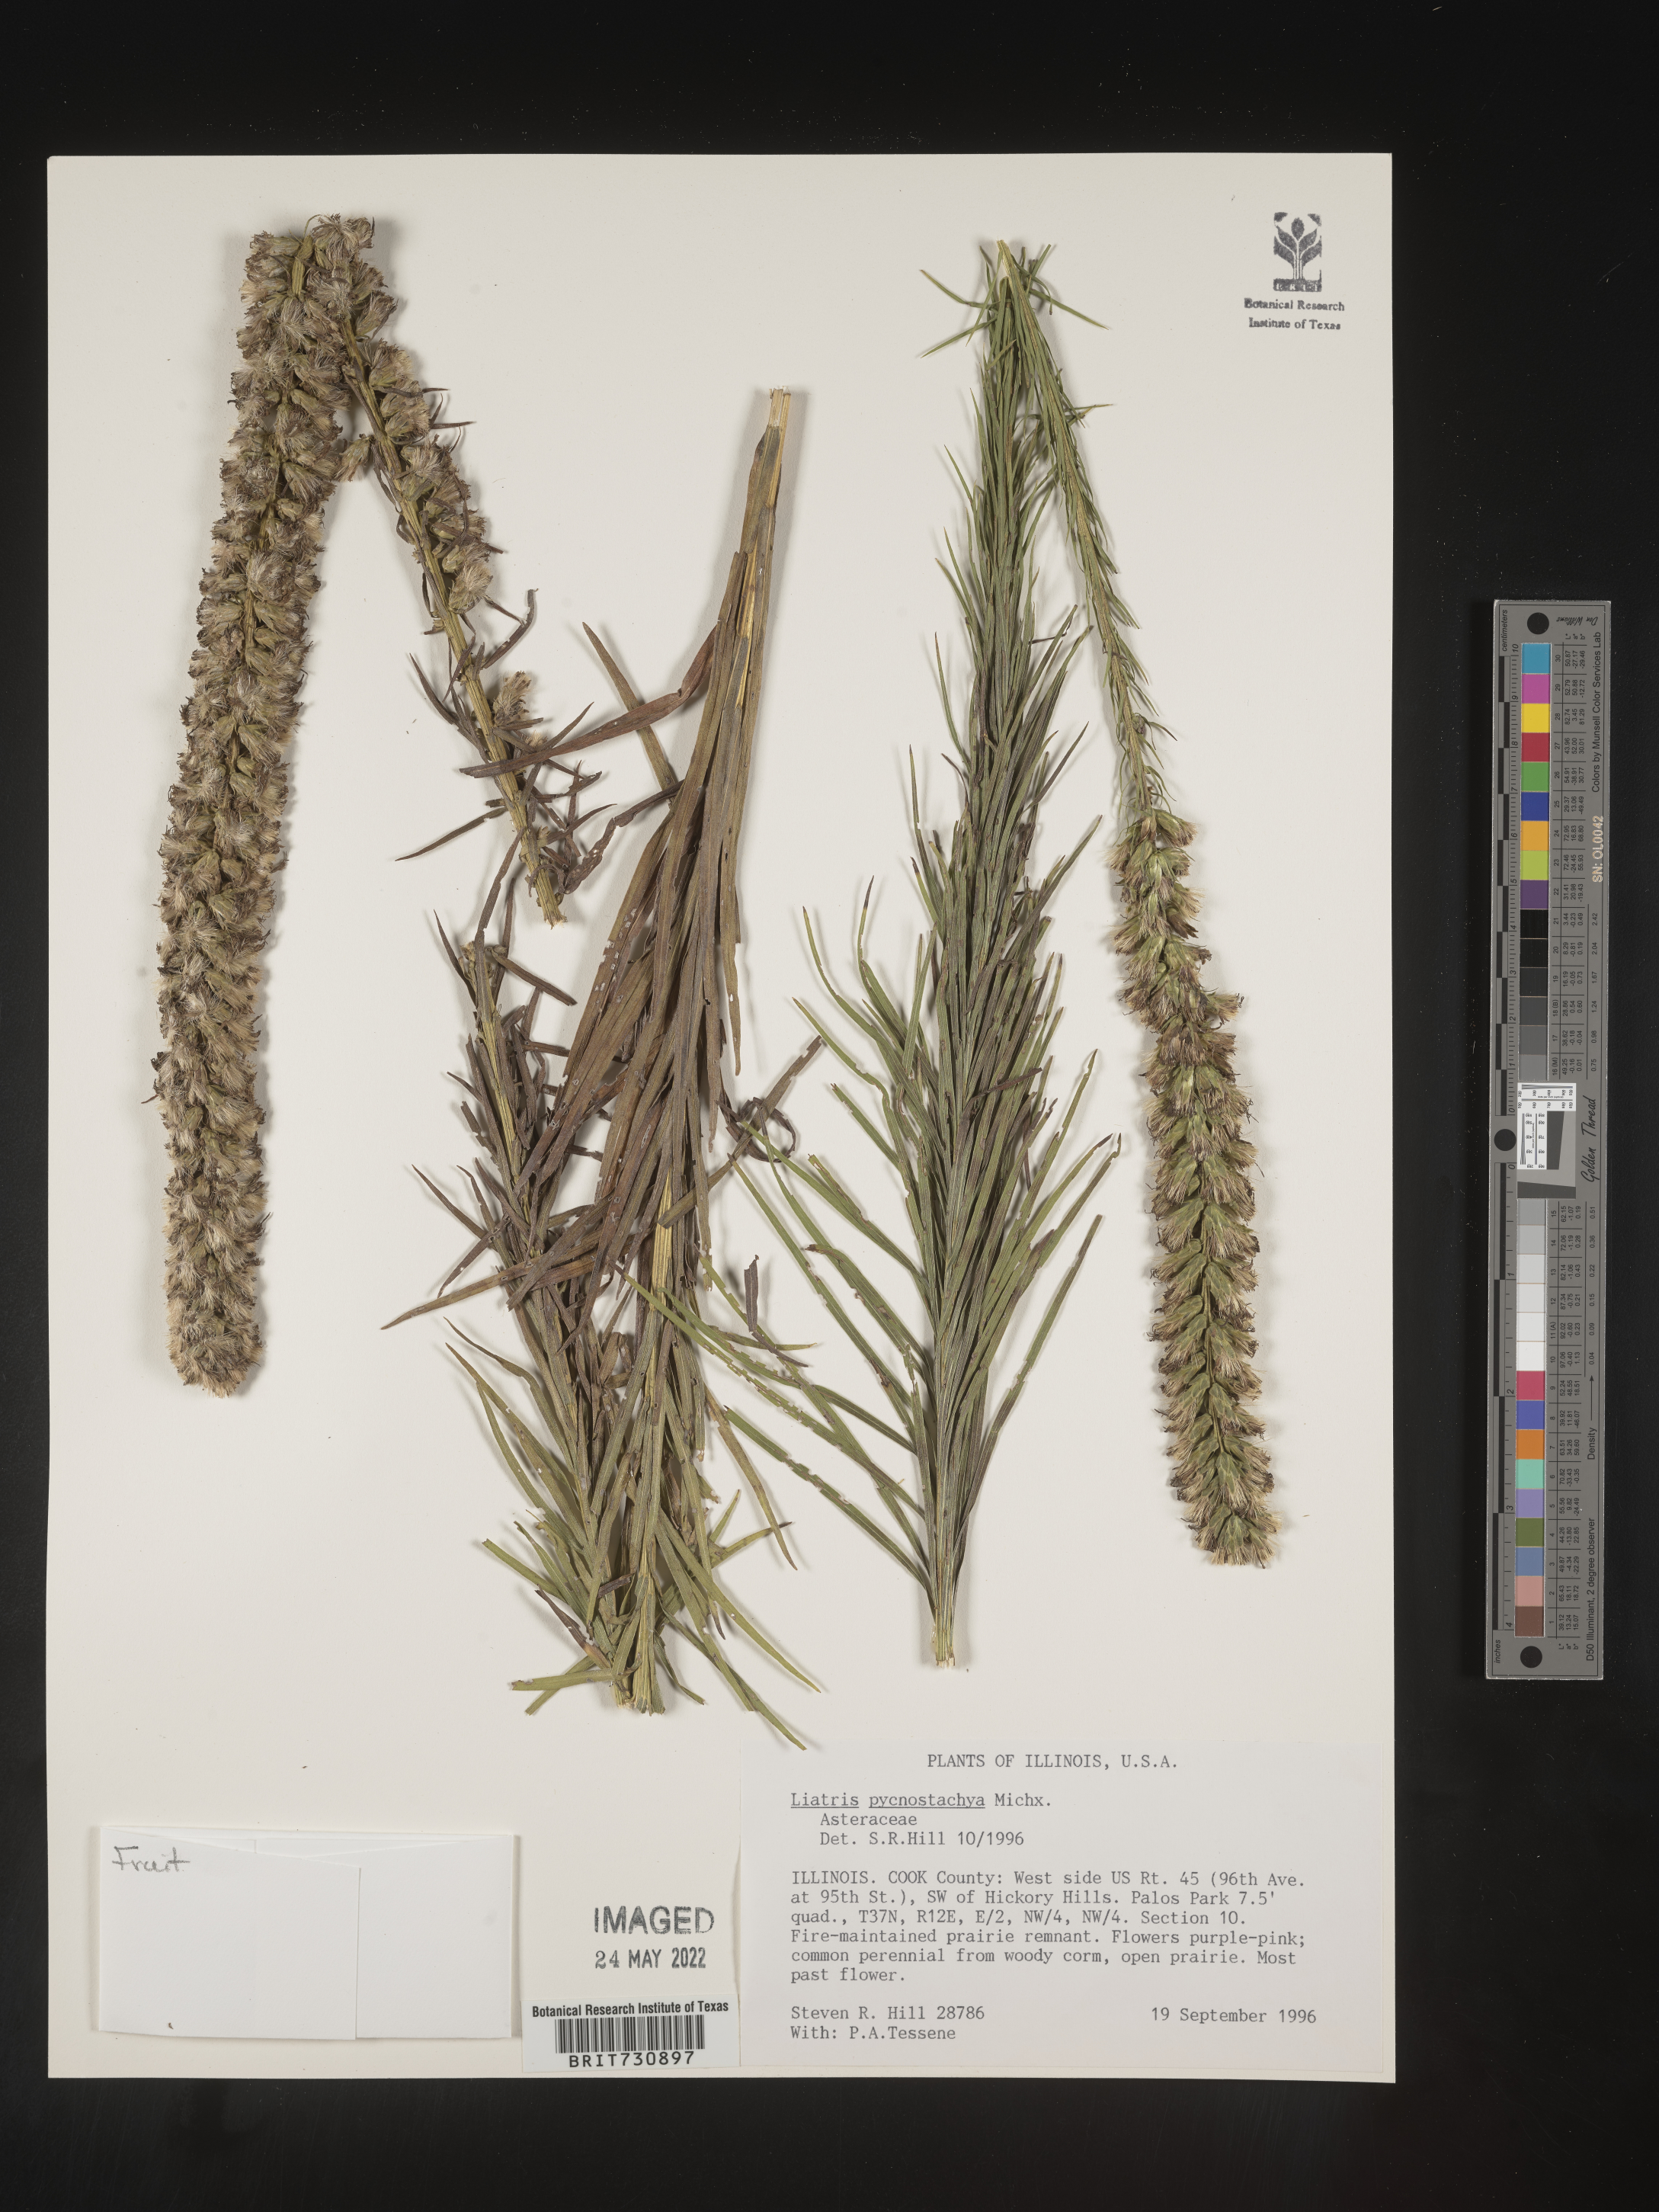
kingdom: Plantae
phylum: Tracheophyta
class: Magnoliopsida
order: Asterales
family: Asteraceae
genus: Liatris
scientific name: Liatris pycnostachya
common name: Cattail gayfeather
